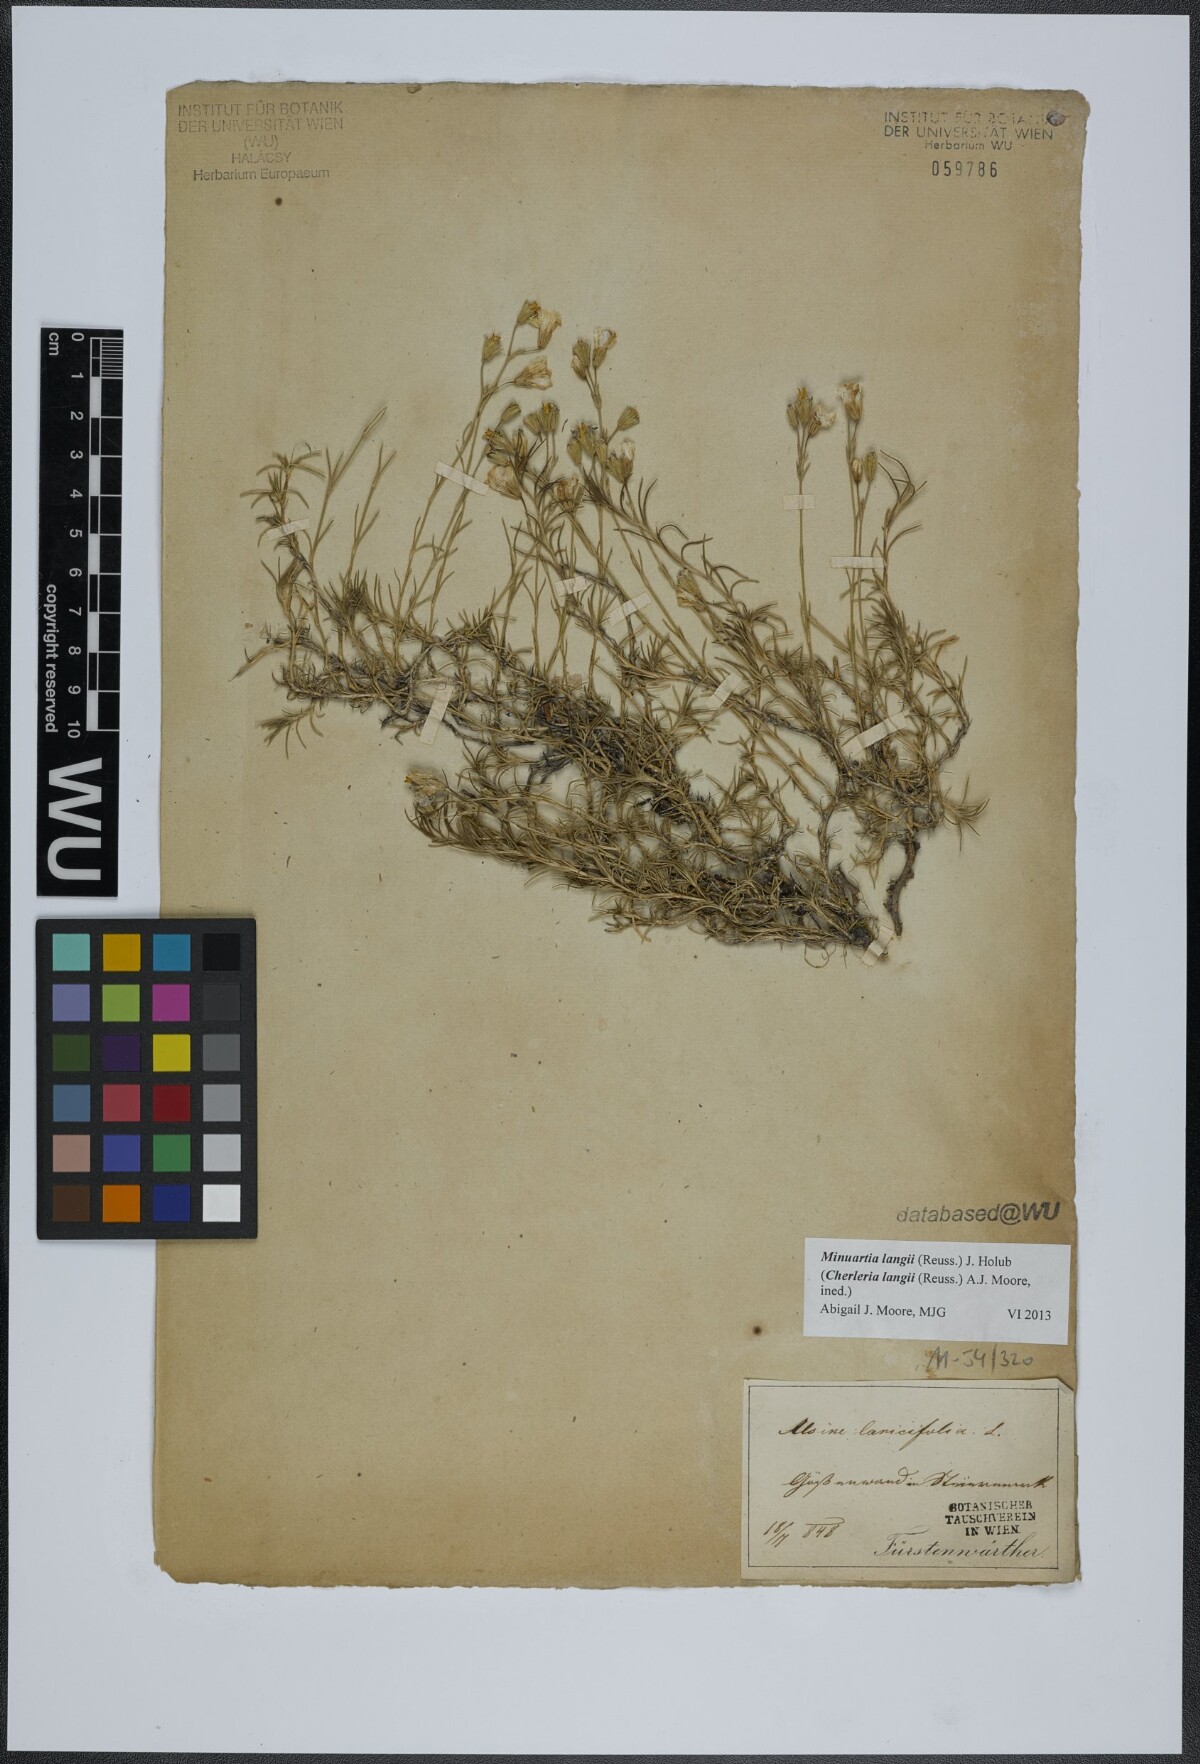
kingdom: Plantae
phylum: Tracheophyta
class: Magnoliopsida
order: Caryophyllales
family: Caryophyllaceae
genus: Cherleria
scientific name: Cherleria langii
